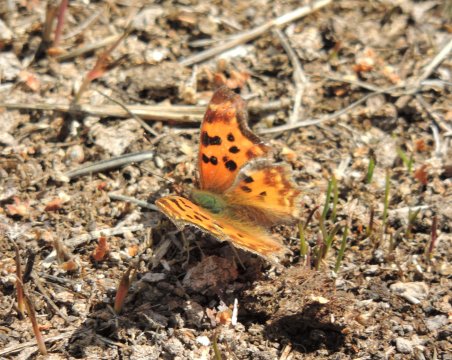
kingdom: Animalia
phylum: Arthropoda
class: Insecta
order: Lepidoptera
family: Nymphalidae
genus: Polygonia
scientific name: Polygonia satyrus
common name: Satyr Comma
